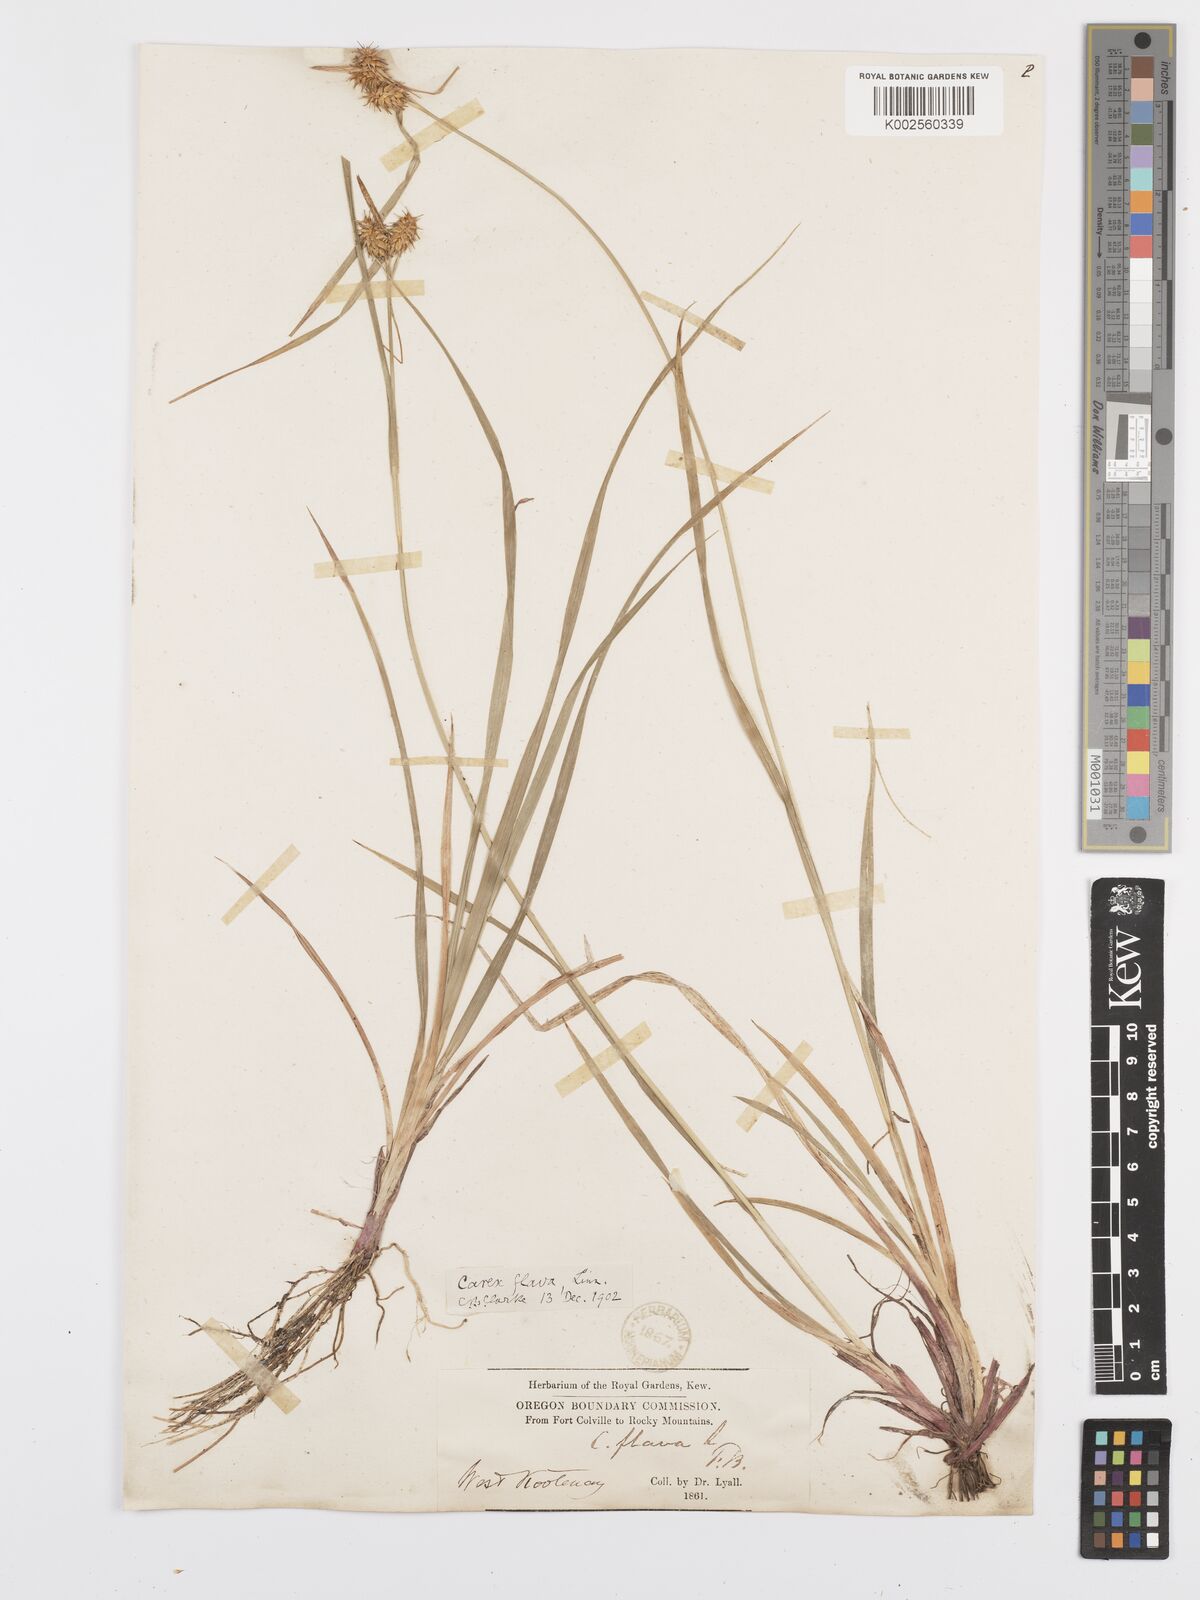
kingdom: Plantae
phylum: Tracheophyta
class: Liliopsida
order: Poales
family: Cyperaceae
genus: Carex
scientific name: Carex flava
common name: Large yellow-sedge
